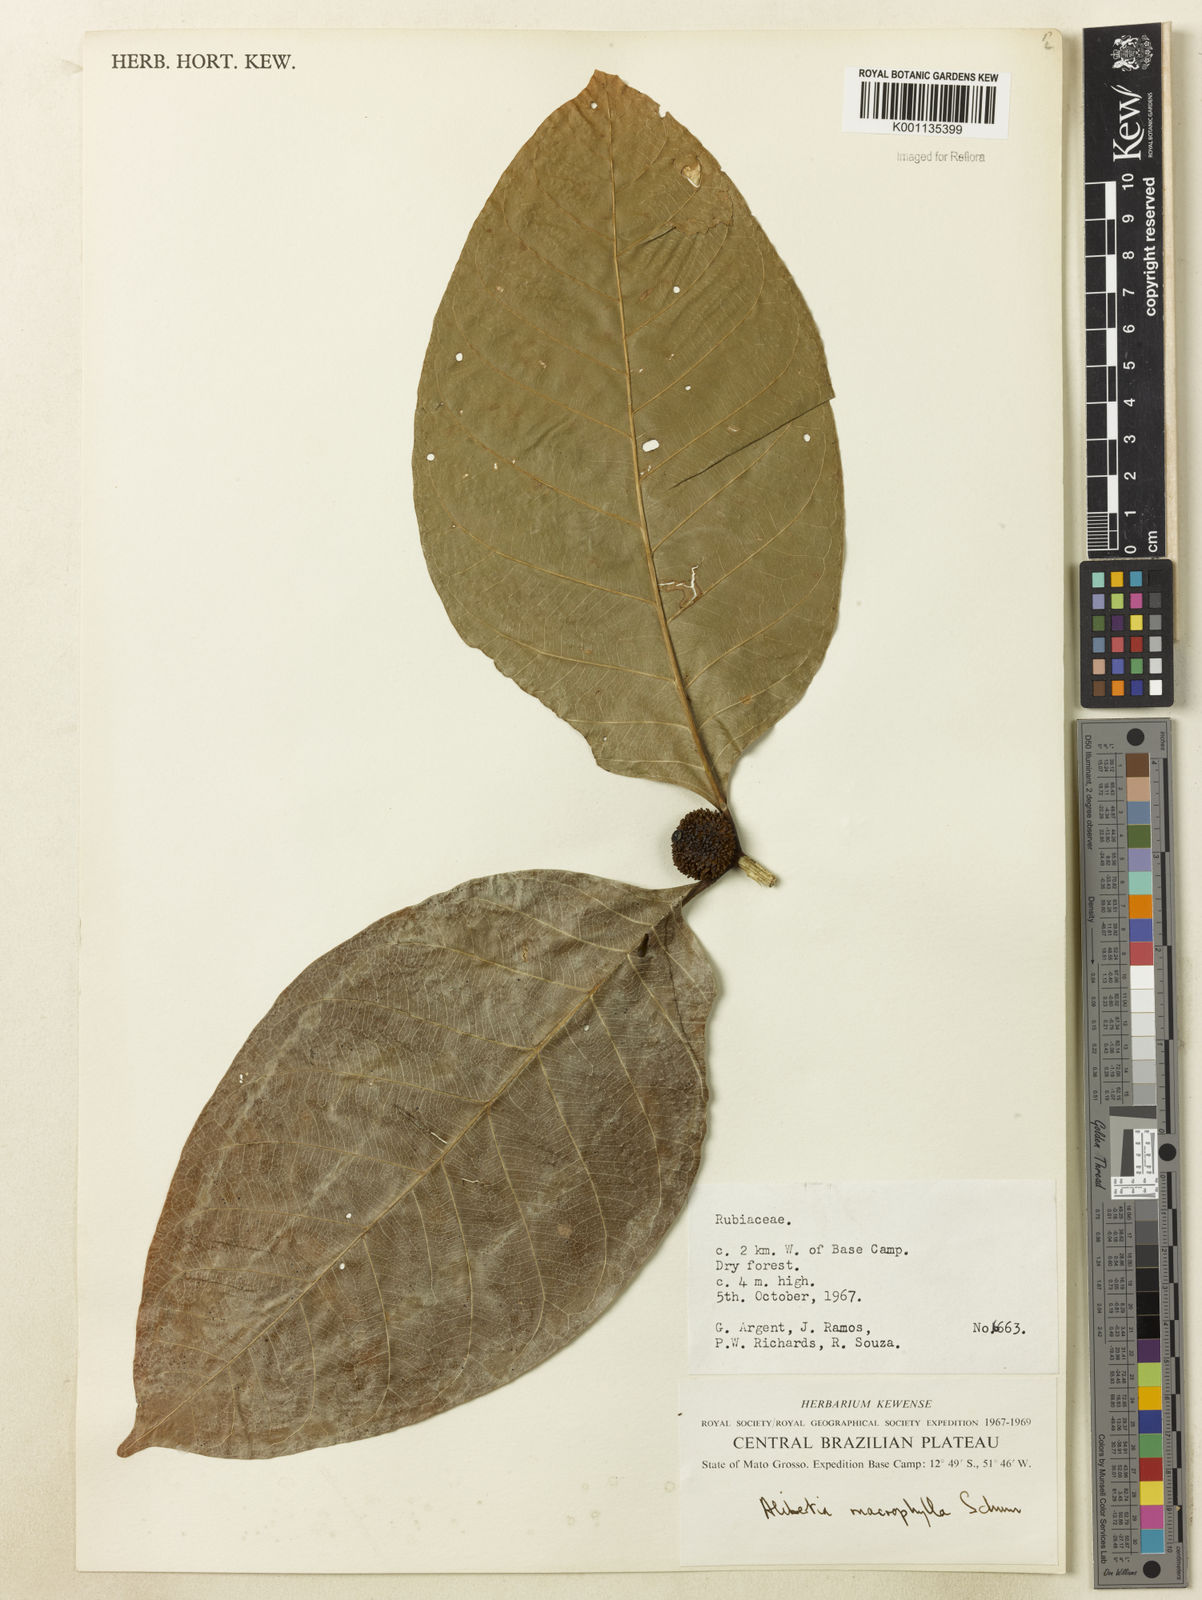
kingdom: Plantae
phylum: Tracheophyta
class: Magnoliopsida
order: Gentianales
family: Rubiaceae
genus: Cordiera
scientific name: Cordiera macrophylla
